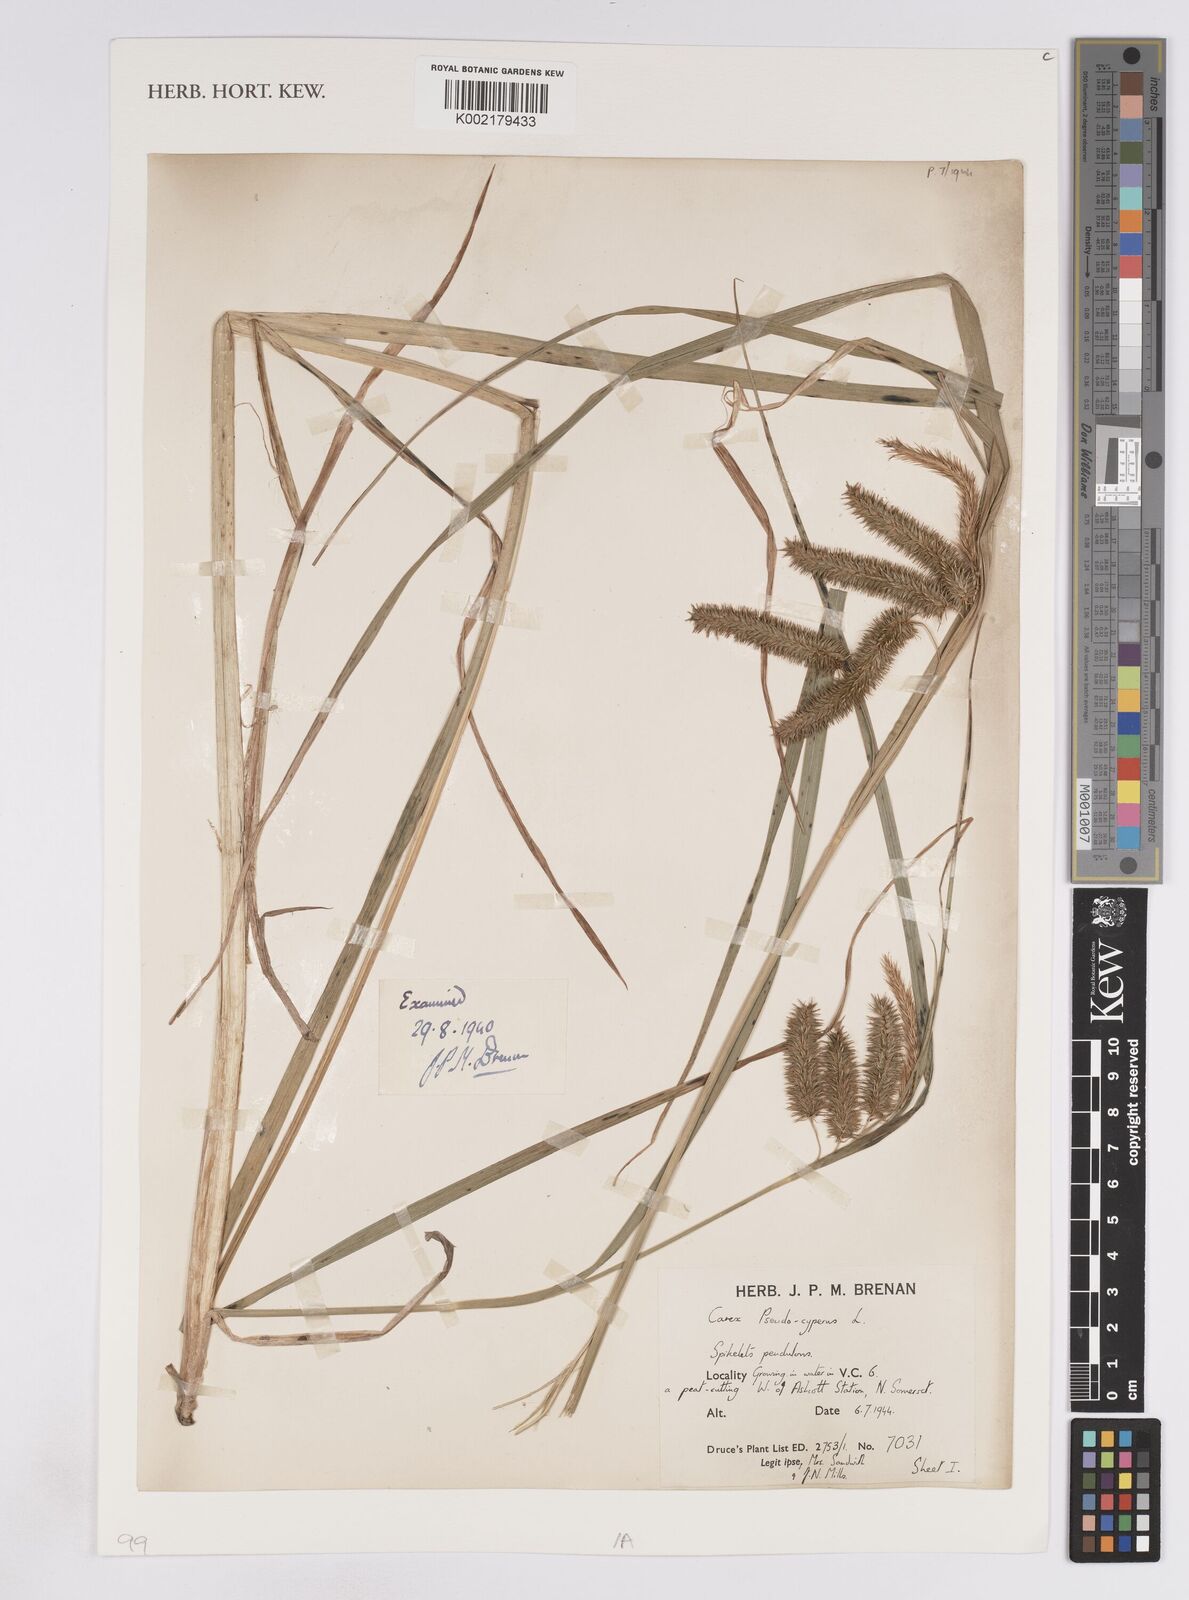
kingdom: Plantae
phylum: Tracheophyta
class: Liliopsida
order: Poales
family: Cyperaceae
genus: Carex
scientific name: Carex pseudocyperus
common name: Cyperus sedge
